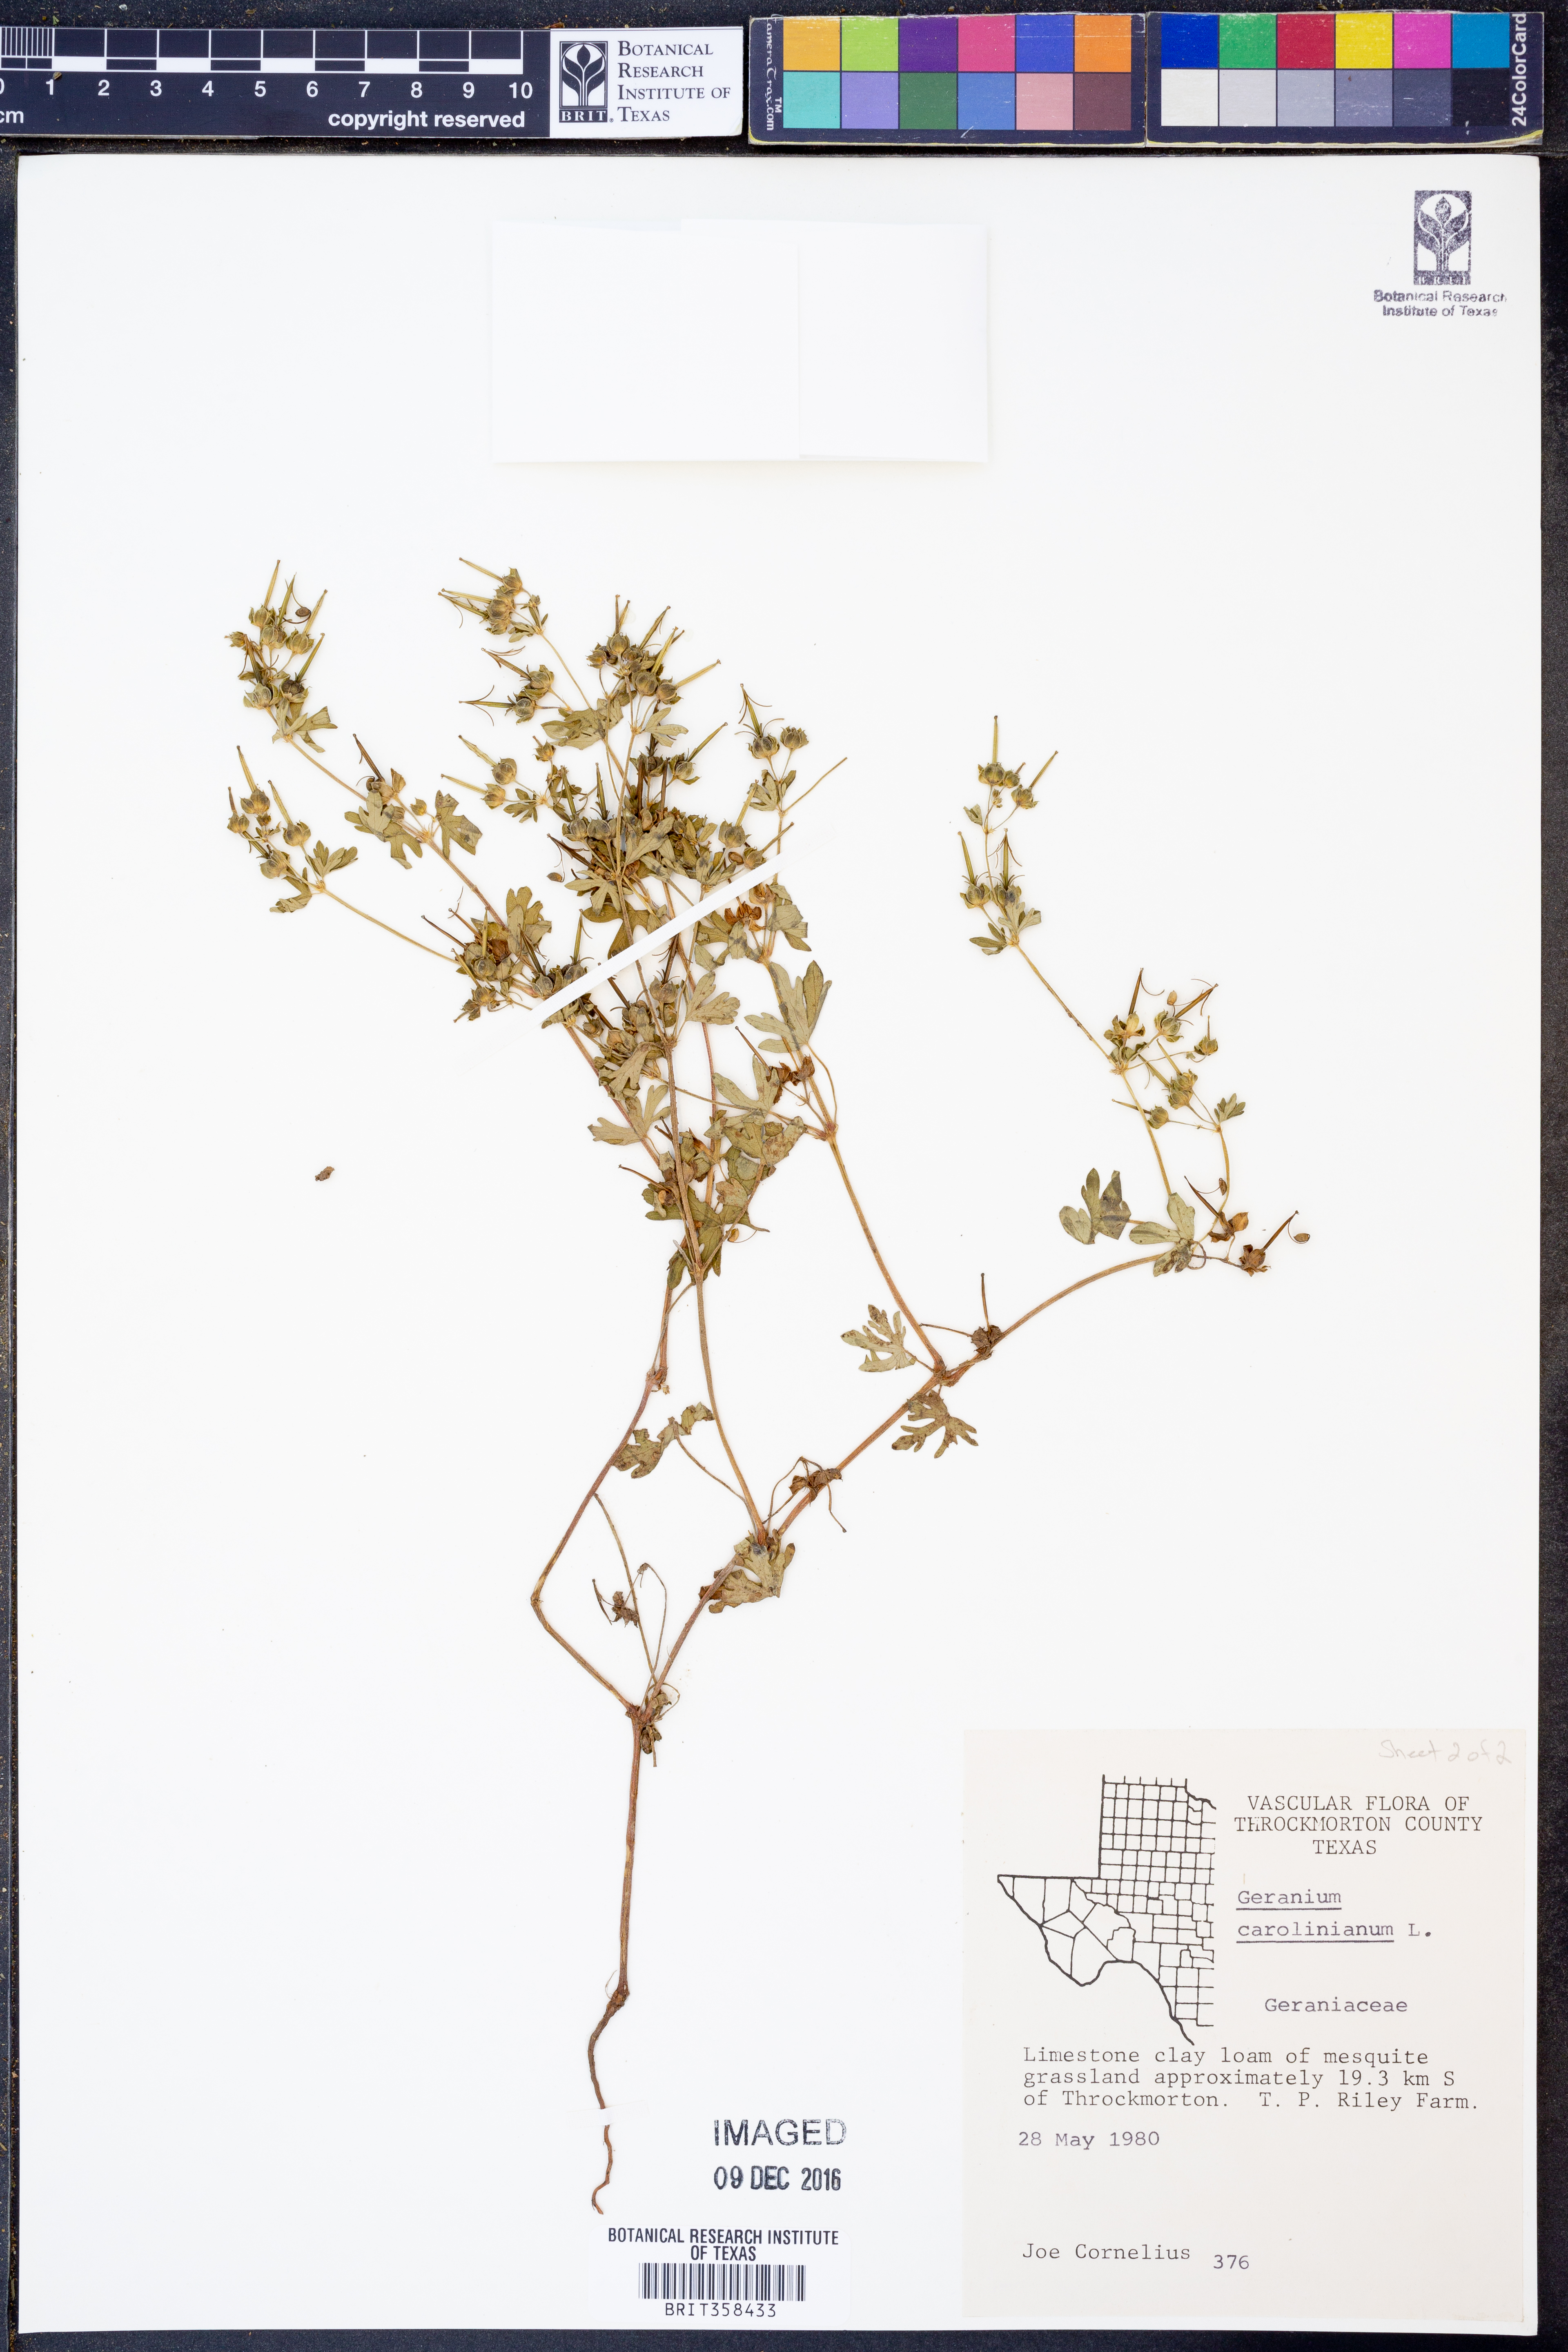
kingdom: Plantae
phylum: Tracheophyta
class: Magnoliopsida
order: Geraniales
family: Geraniaceae
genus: Geranium
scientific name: Geranium carolinianum
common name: Carolina crane's-bill
